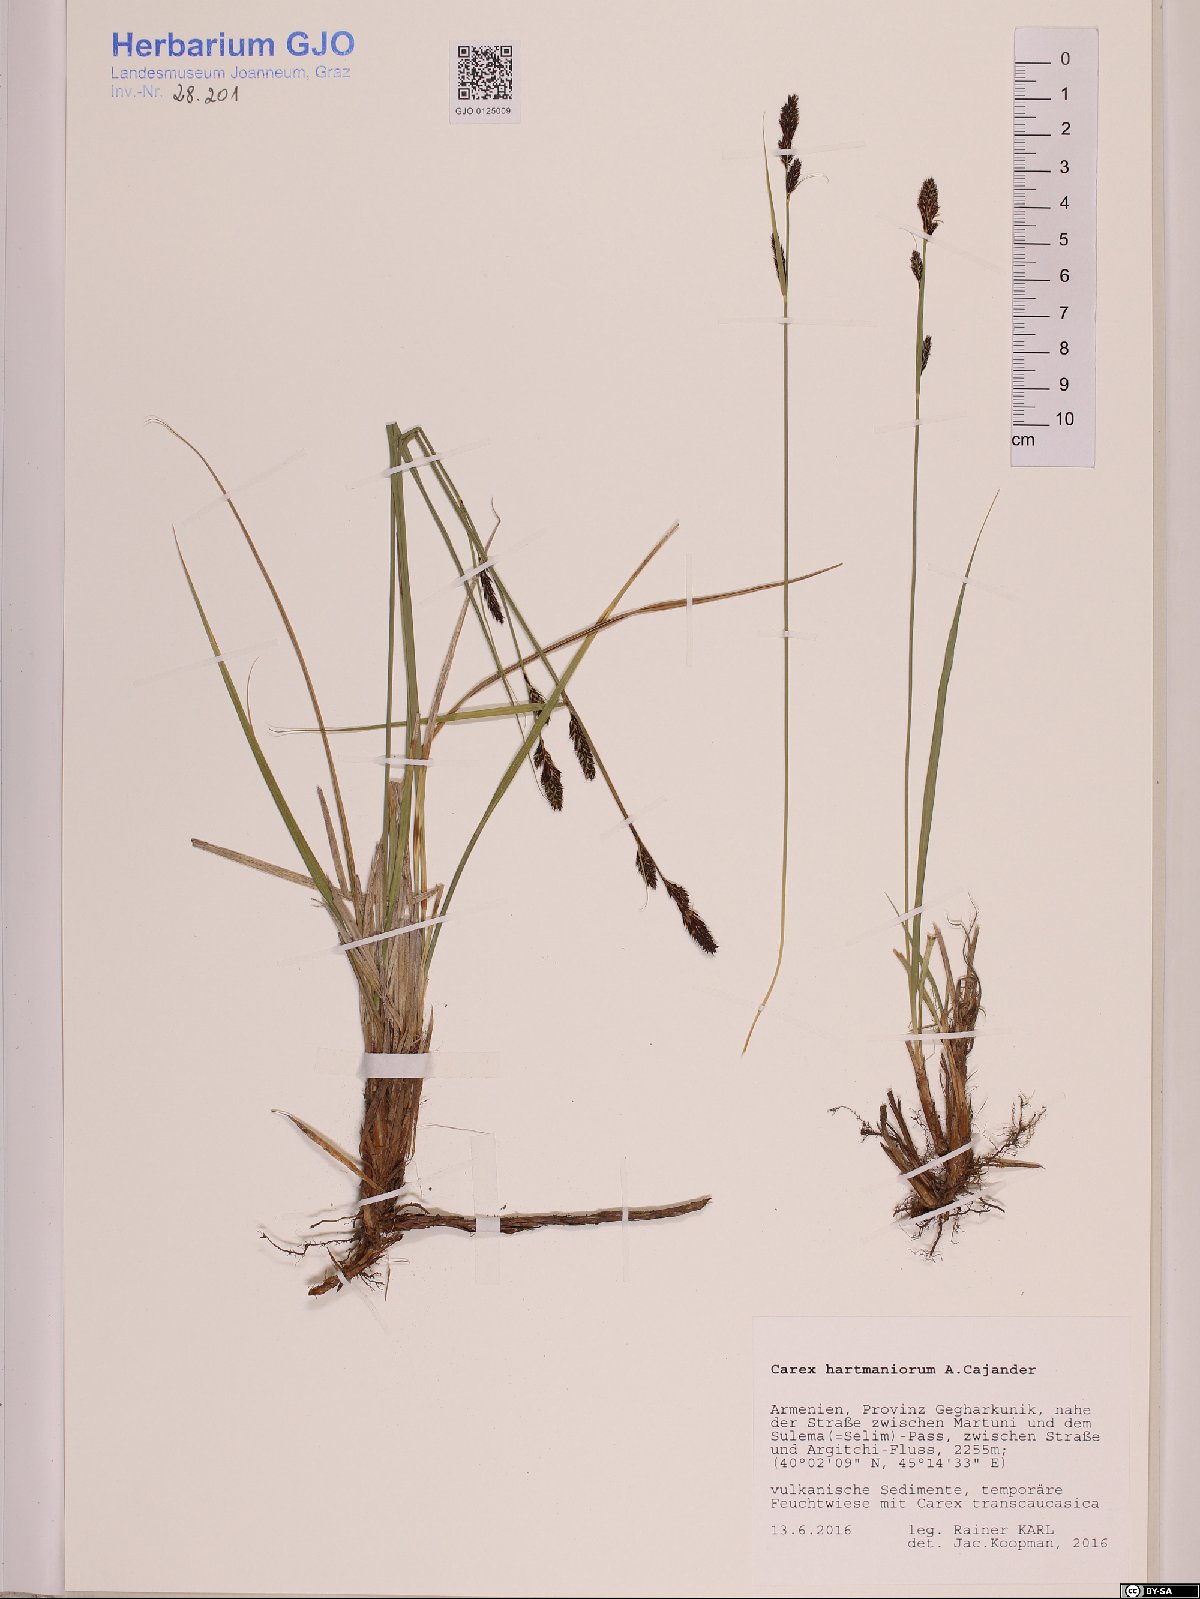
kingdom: Plantae
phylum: Tracheophyta
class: Liliopsida
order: Poales
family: Cyperaceae
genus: Carex
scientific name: Carex hartmaniorum
